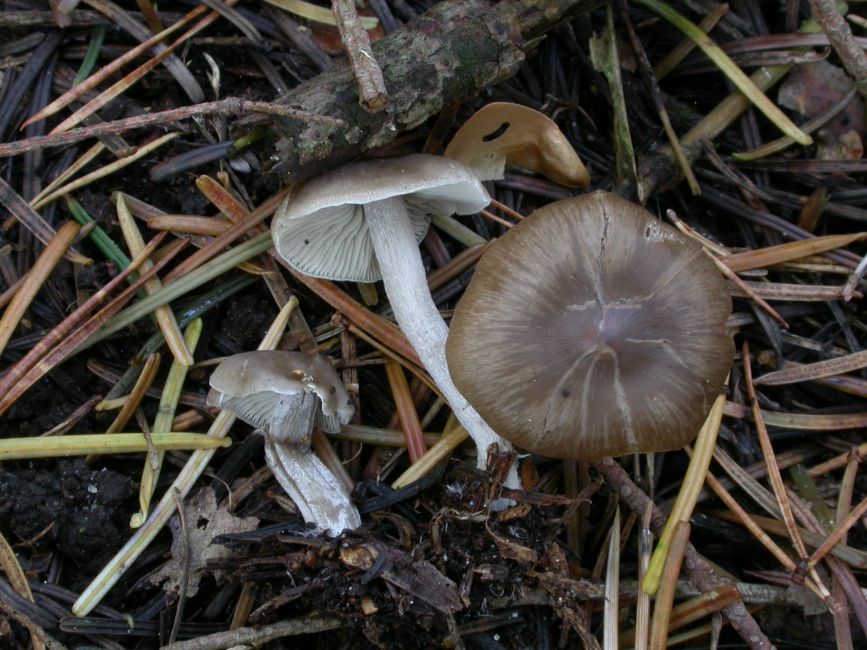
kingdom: Fungi
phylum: Basidiomycota
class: Agaricomycetes
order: Agaricales
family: Lyophyllaceae
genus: Myochromella
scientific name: Myochromella boudieri
